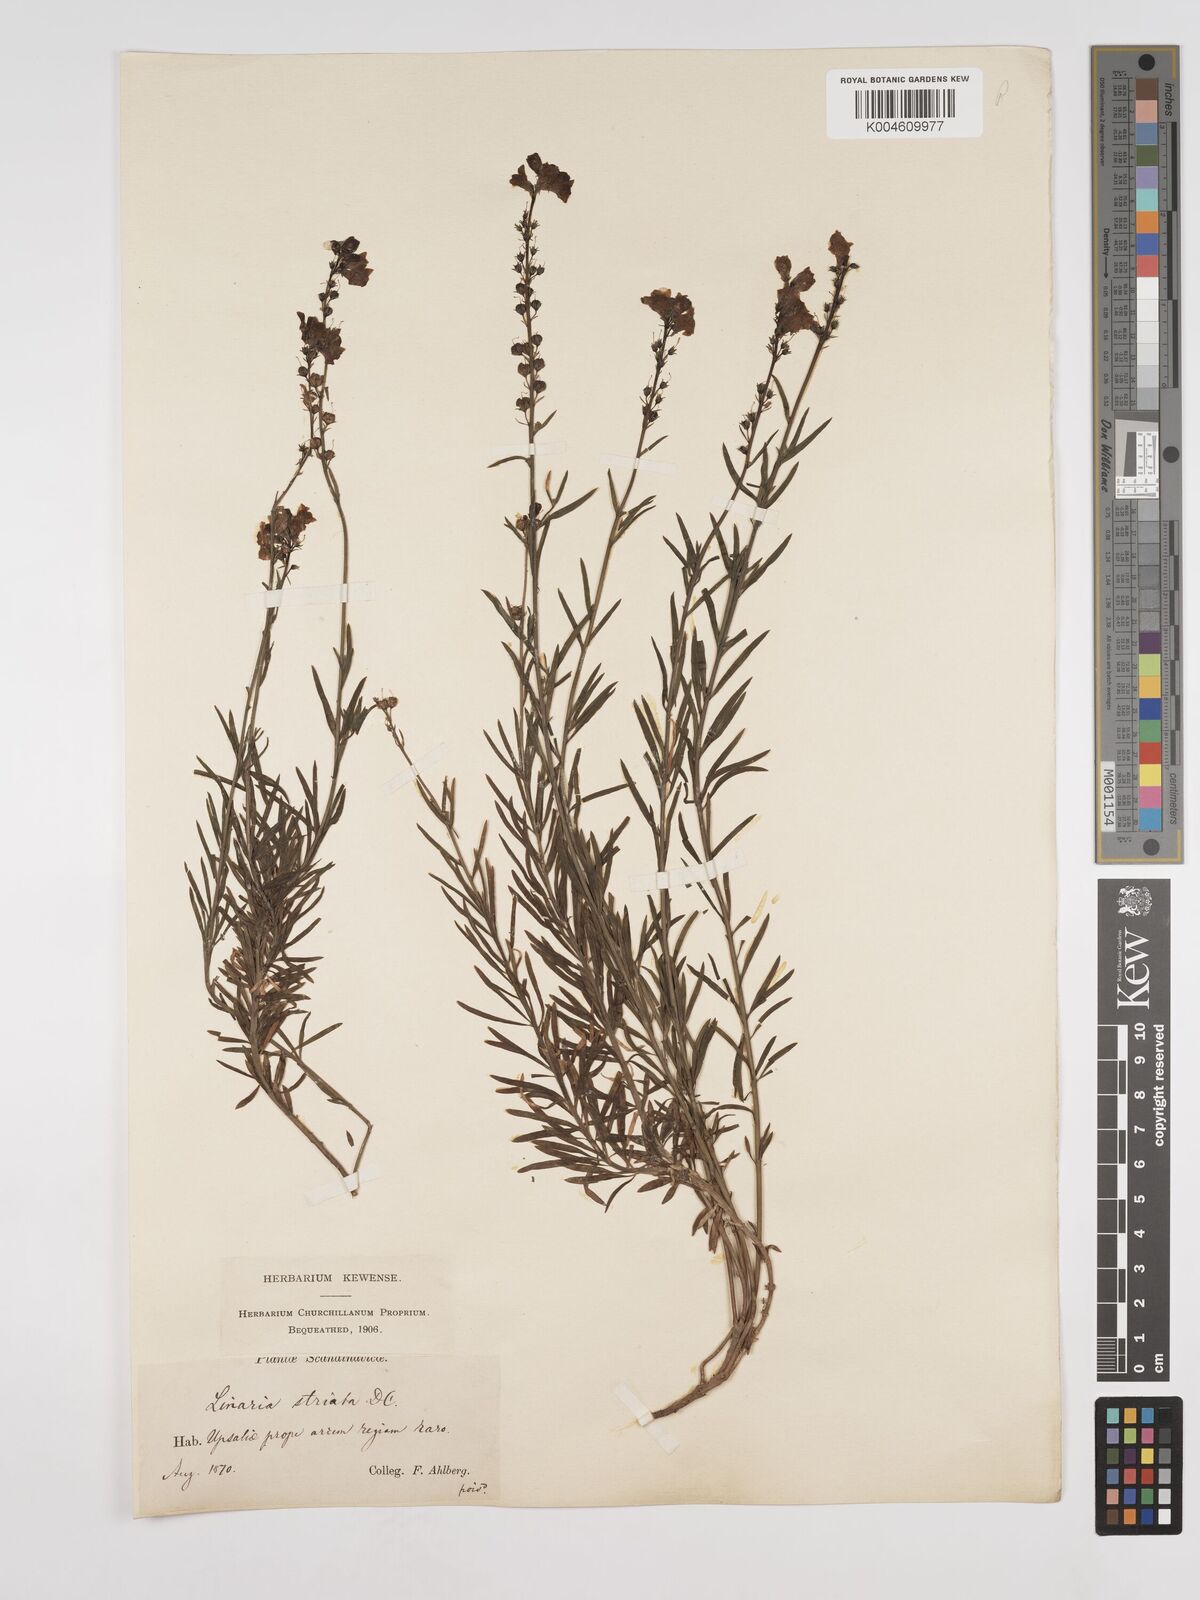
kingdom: Plantae
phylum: Tracheophyta
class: Magnoliopsida
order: Lamiales
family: Plantaginaceae
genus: Linaria
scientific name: Linaria
